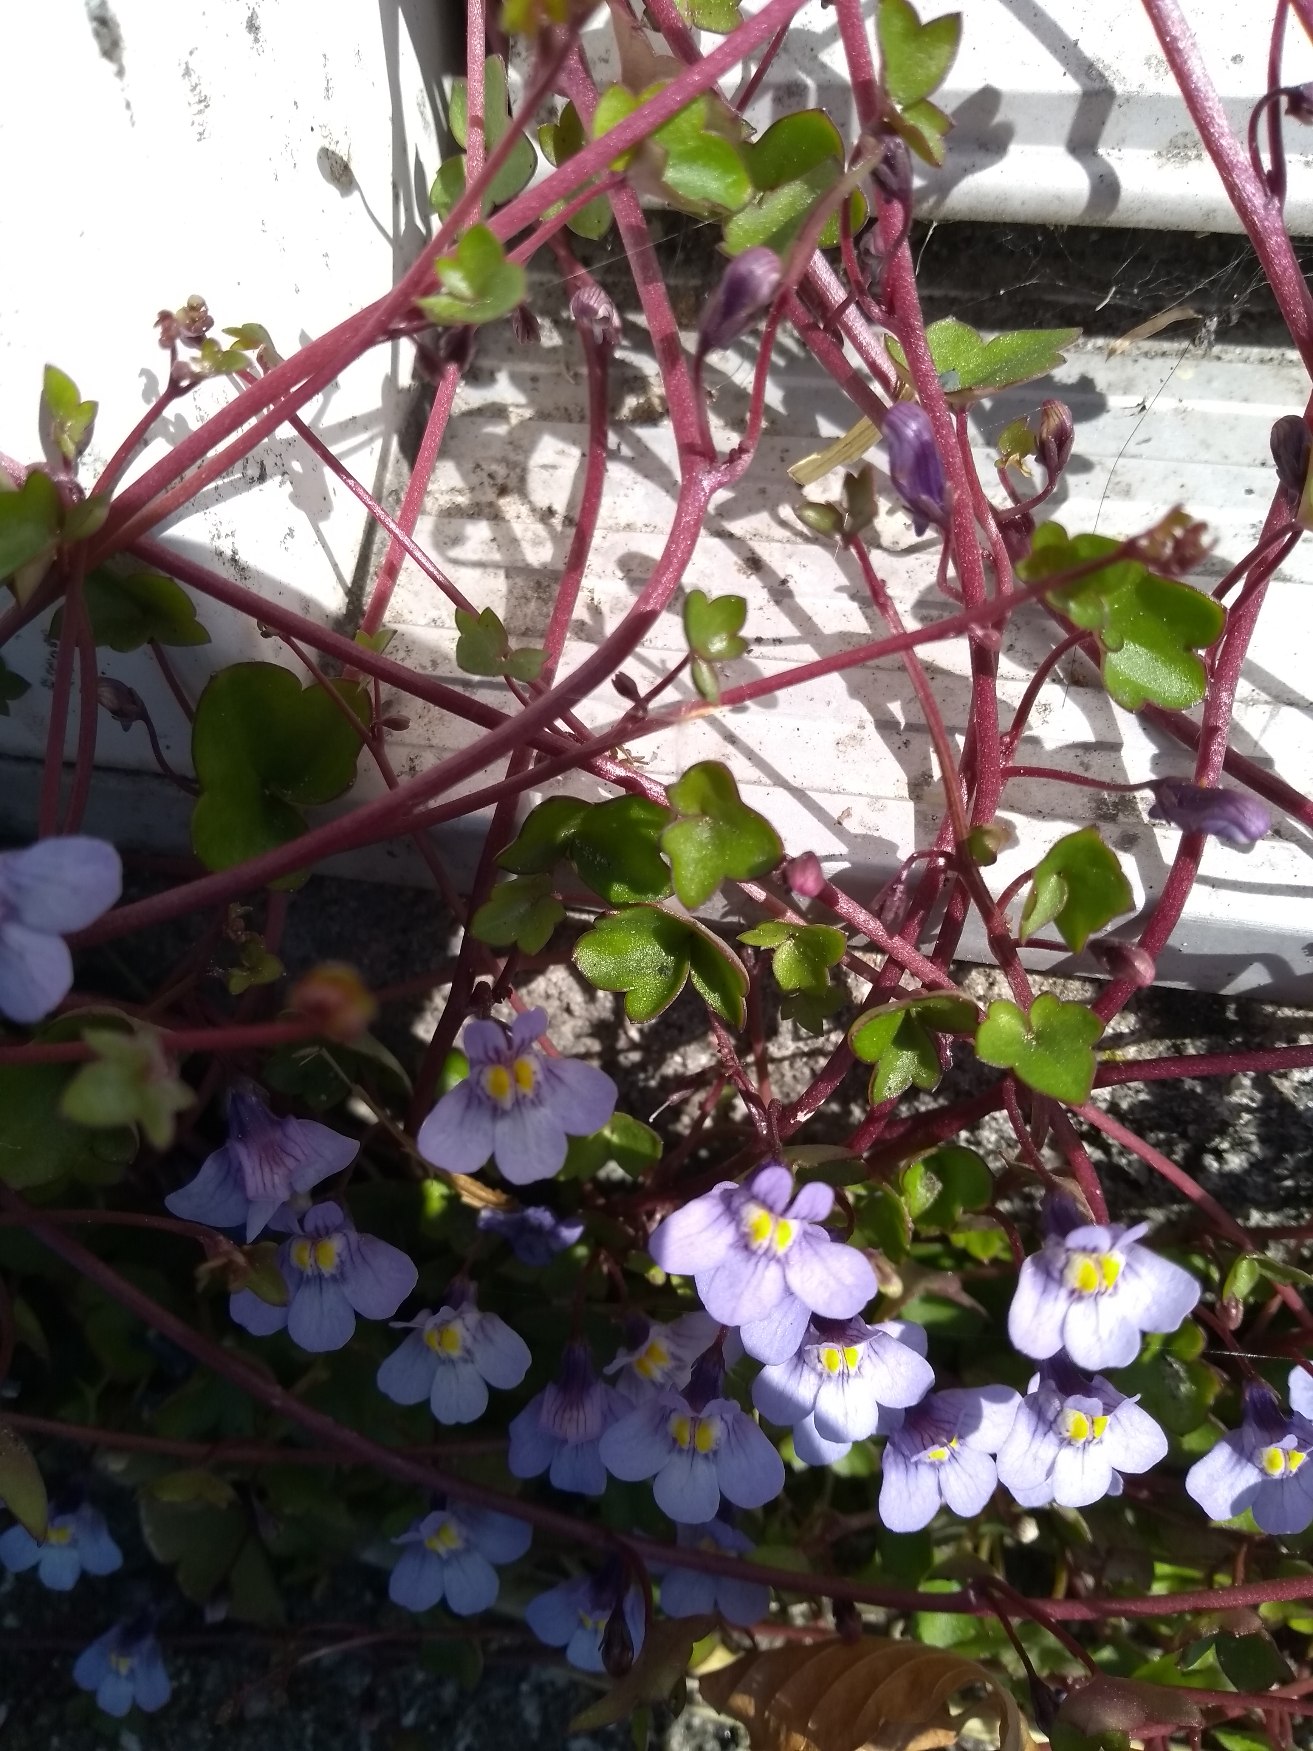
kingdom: Plantae
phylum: Tracheophyta
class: Magnoliopsida
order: Lamiales
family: Plantaginaceae
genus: Cymbalaria
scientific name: Cymbalaria muralis
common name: Vedbend-torskemund
